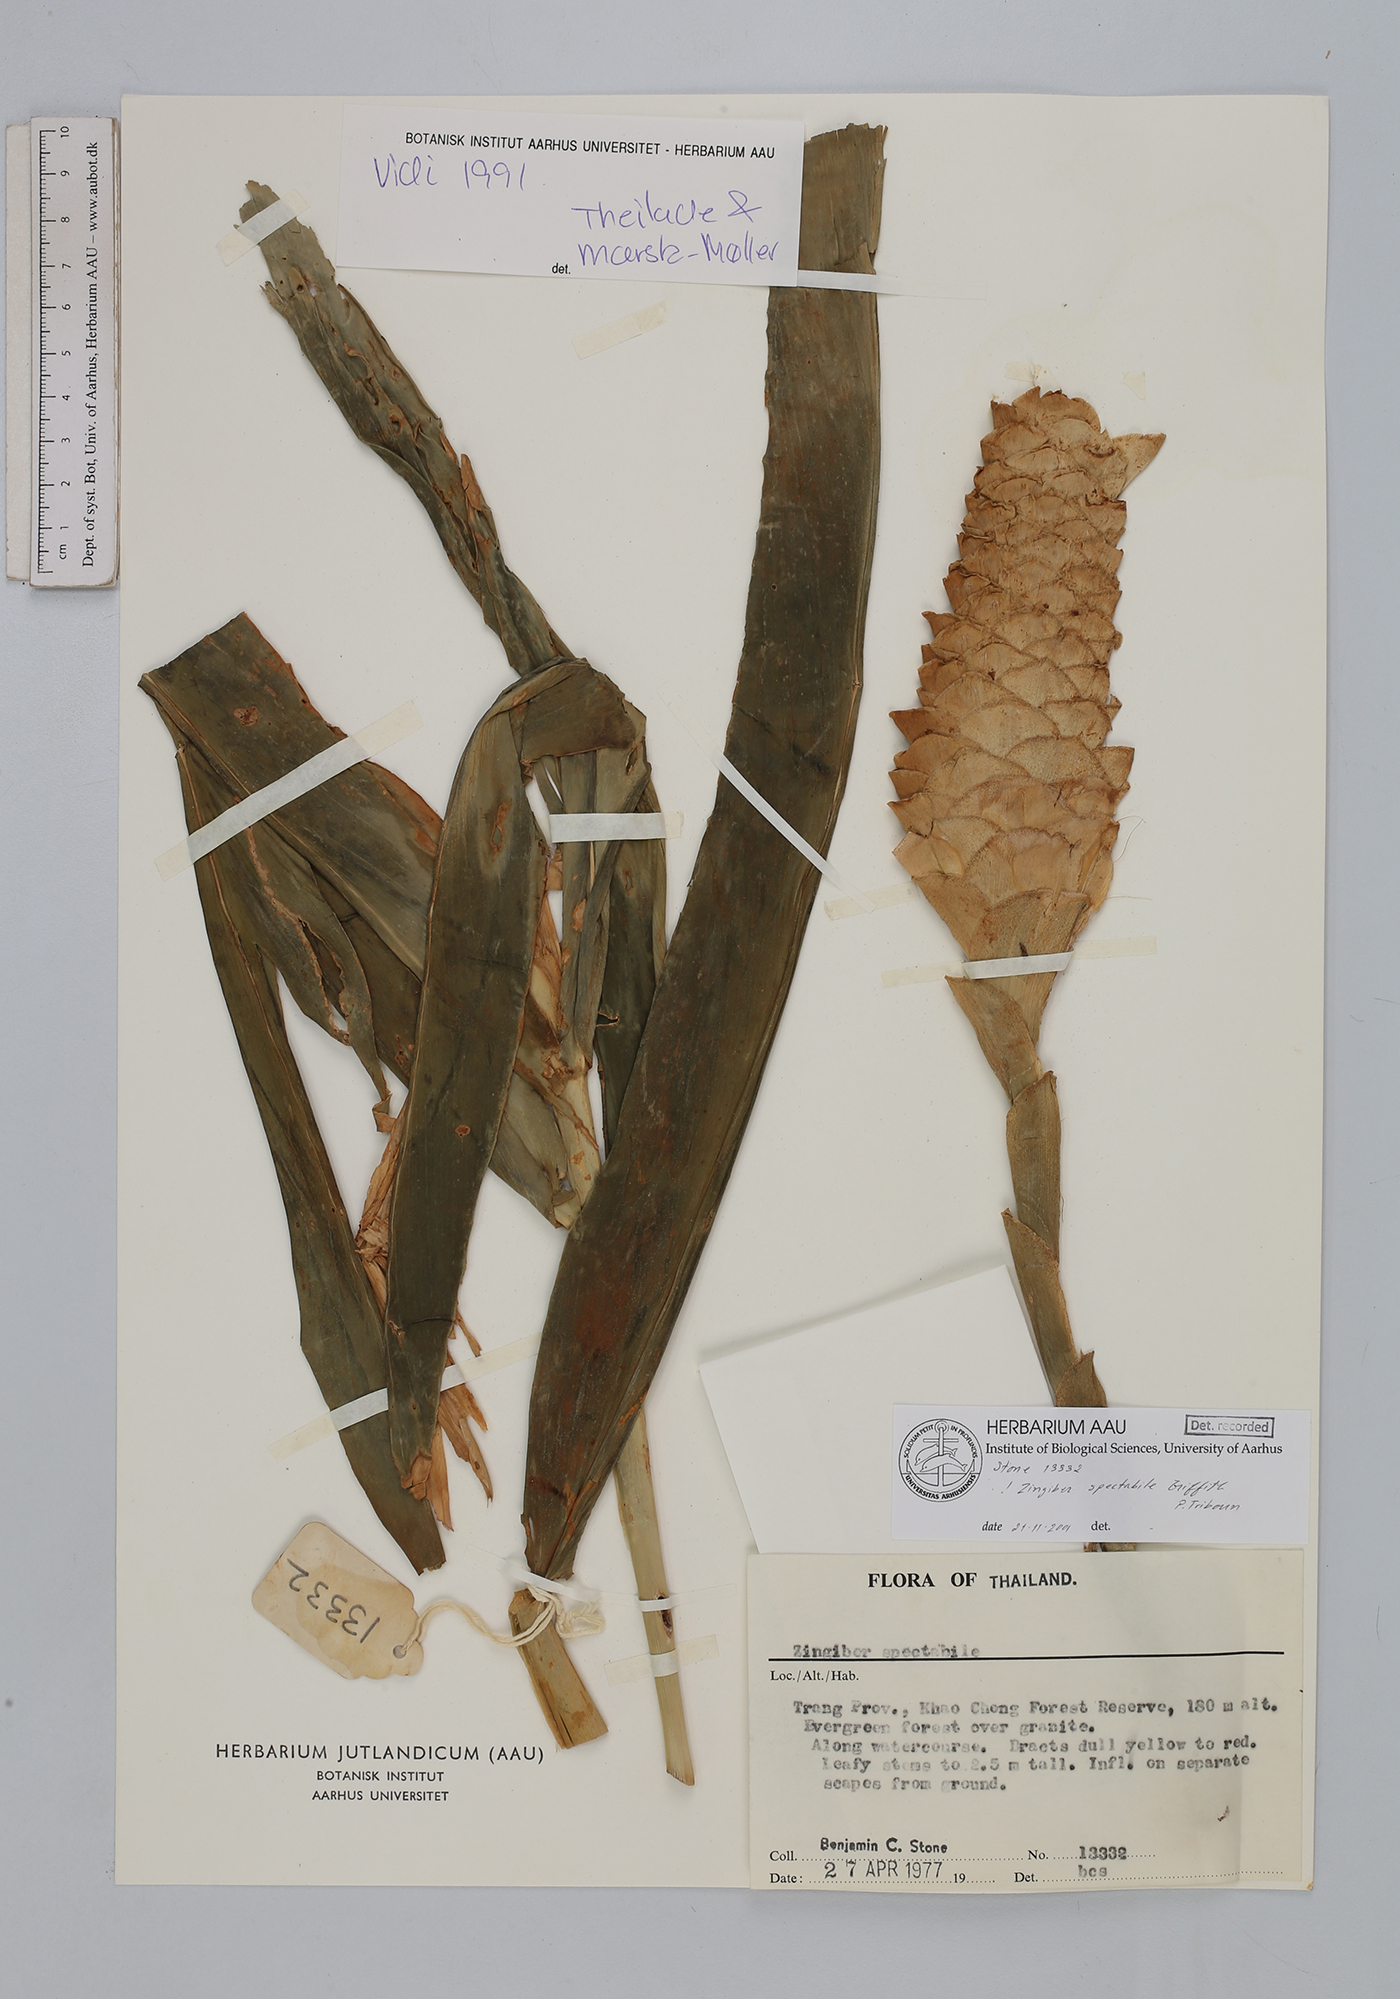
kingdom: Plantae
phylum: Tracheophyta
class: Liliopsida
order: Zingiberales
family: Zingiberaceae
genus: Zingiber
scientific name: Zingiber spectabile
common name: Beehive ginger
